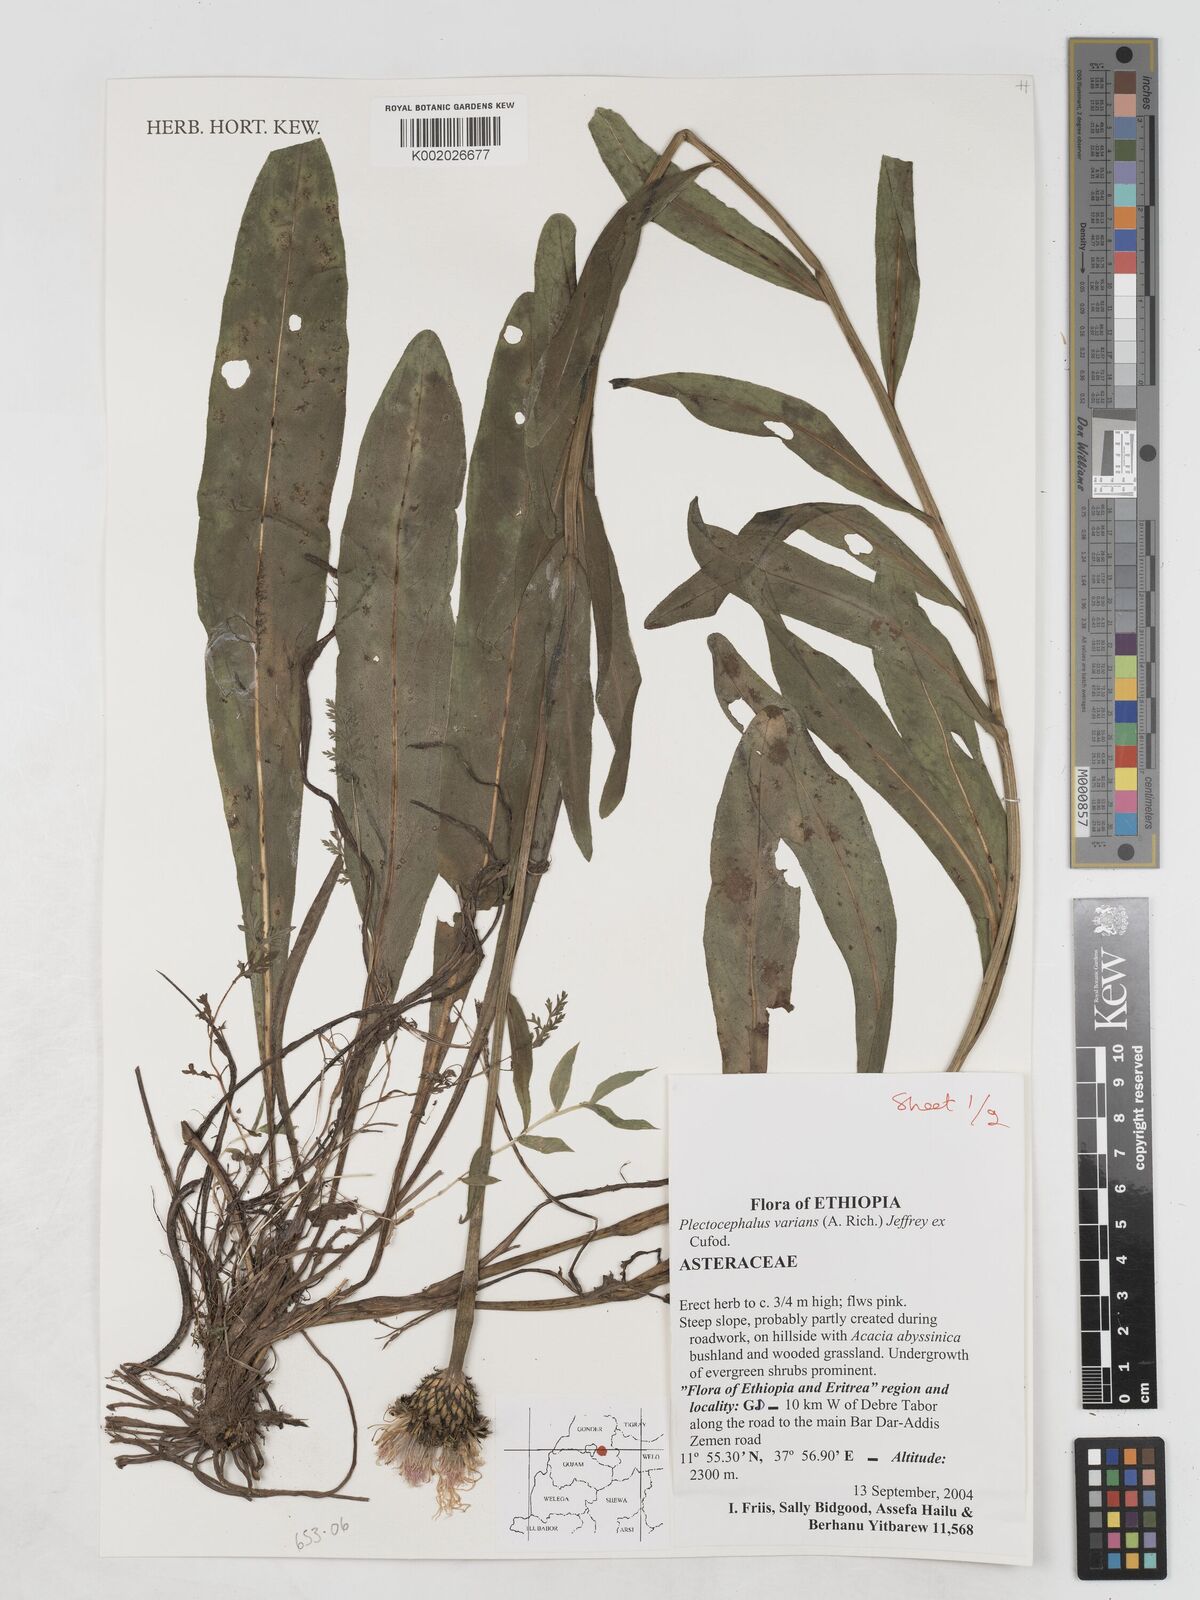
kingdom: Plantae
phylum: Tracheophyta
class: Magnoliopsida
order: Asterales
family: Asteraceae
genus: Plectocephalus
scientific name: Plectocephalus varians
